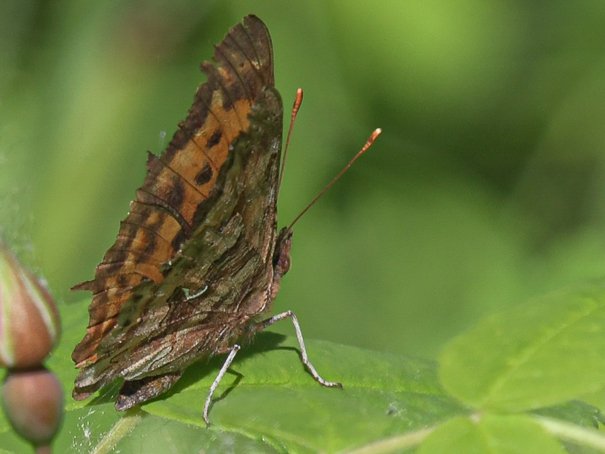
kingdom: Animalia
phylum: Arthropoda
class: Insecta
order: Lepidoptera
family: Nymphalidae
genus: Polygonia
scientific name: Polygonia satyrus
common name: Satyr Comma
